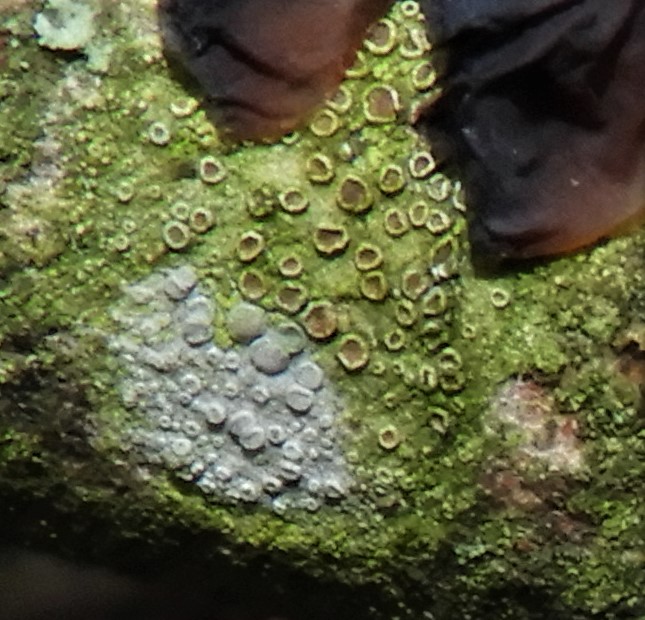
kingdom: Fungi
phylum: Ascomycota
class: Lecanoromycetes
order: Lecanorales
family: Lecanoraceae
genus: Lecanora
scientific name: Lecanora chlarotera
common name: brun kantskivelav
